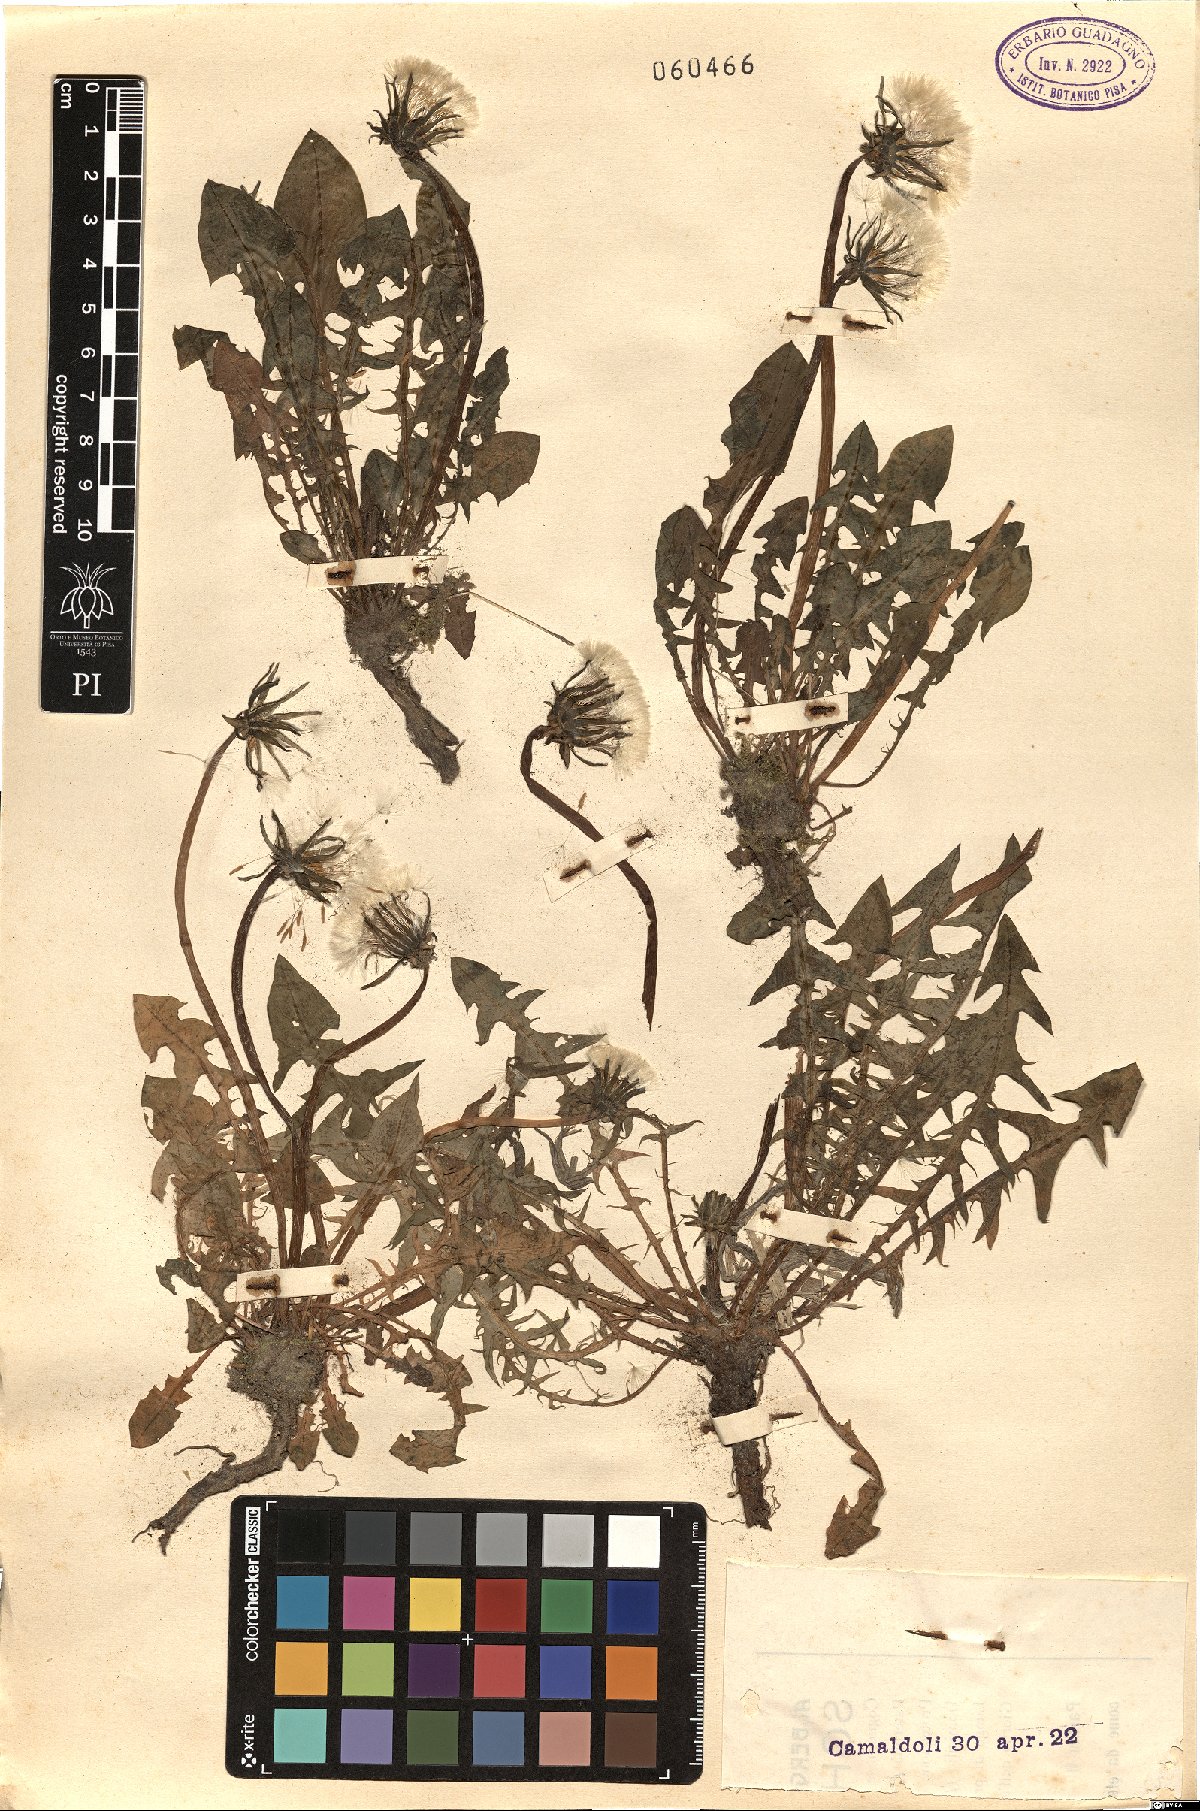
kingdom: Plantae
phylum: Tracheophyta
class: Magnoliopsida
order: Asterales
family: Asteraceae
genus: Taraxacum
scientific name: Taraxacum
